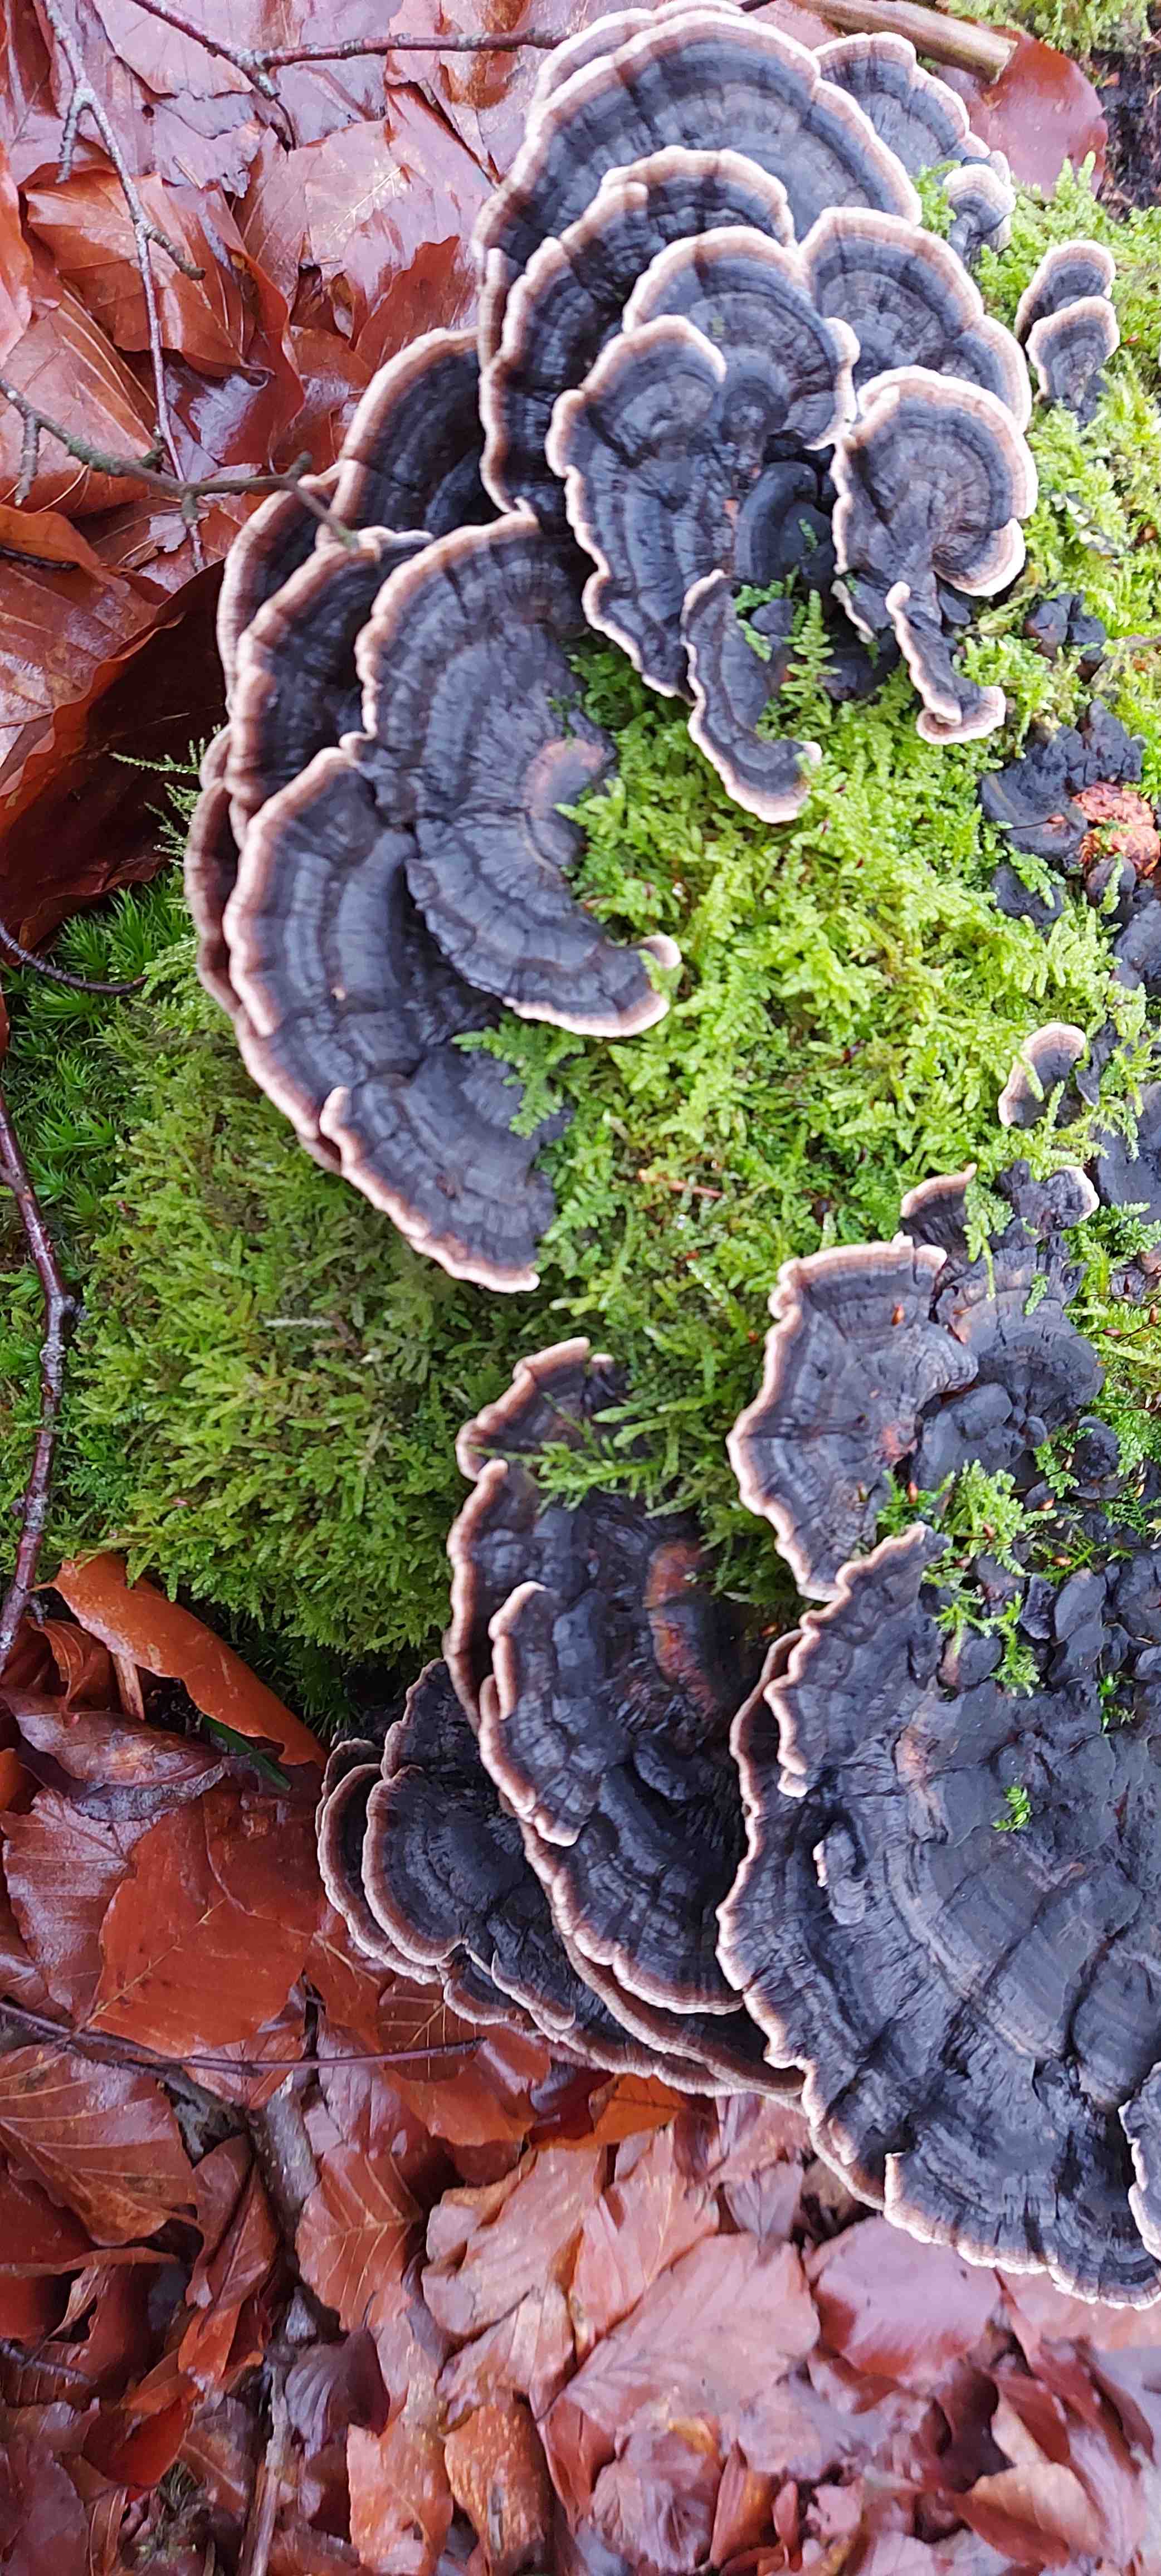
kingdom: Fungi
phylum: Basidiomycota
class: Agaricomycetes
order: Polyporales
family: Polyporaceae
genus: Trametes
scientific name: Trametes versicolor
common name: broget læderporesvamp
